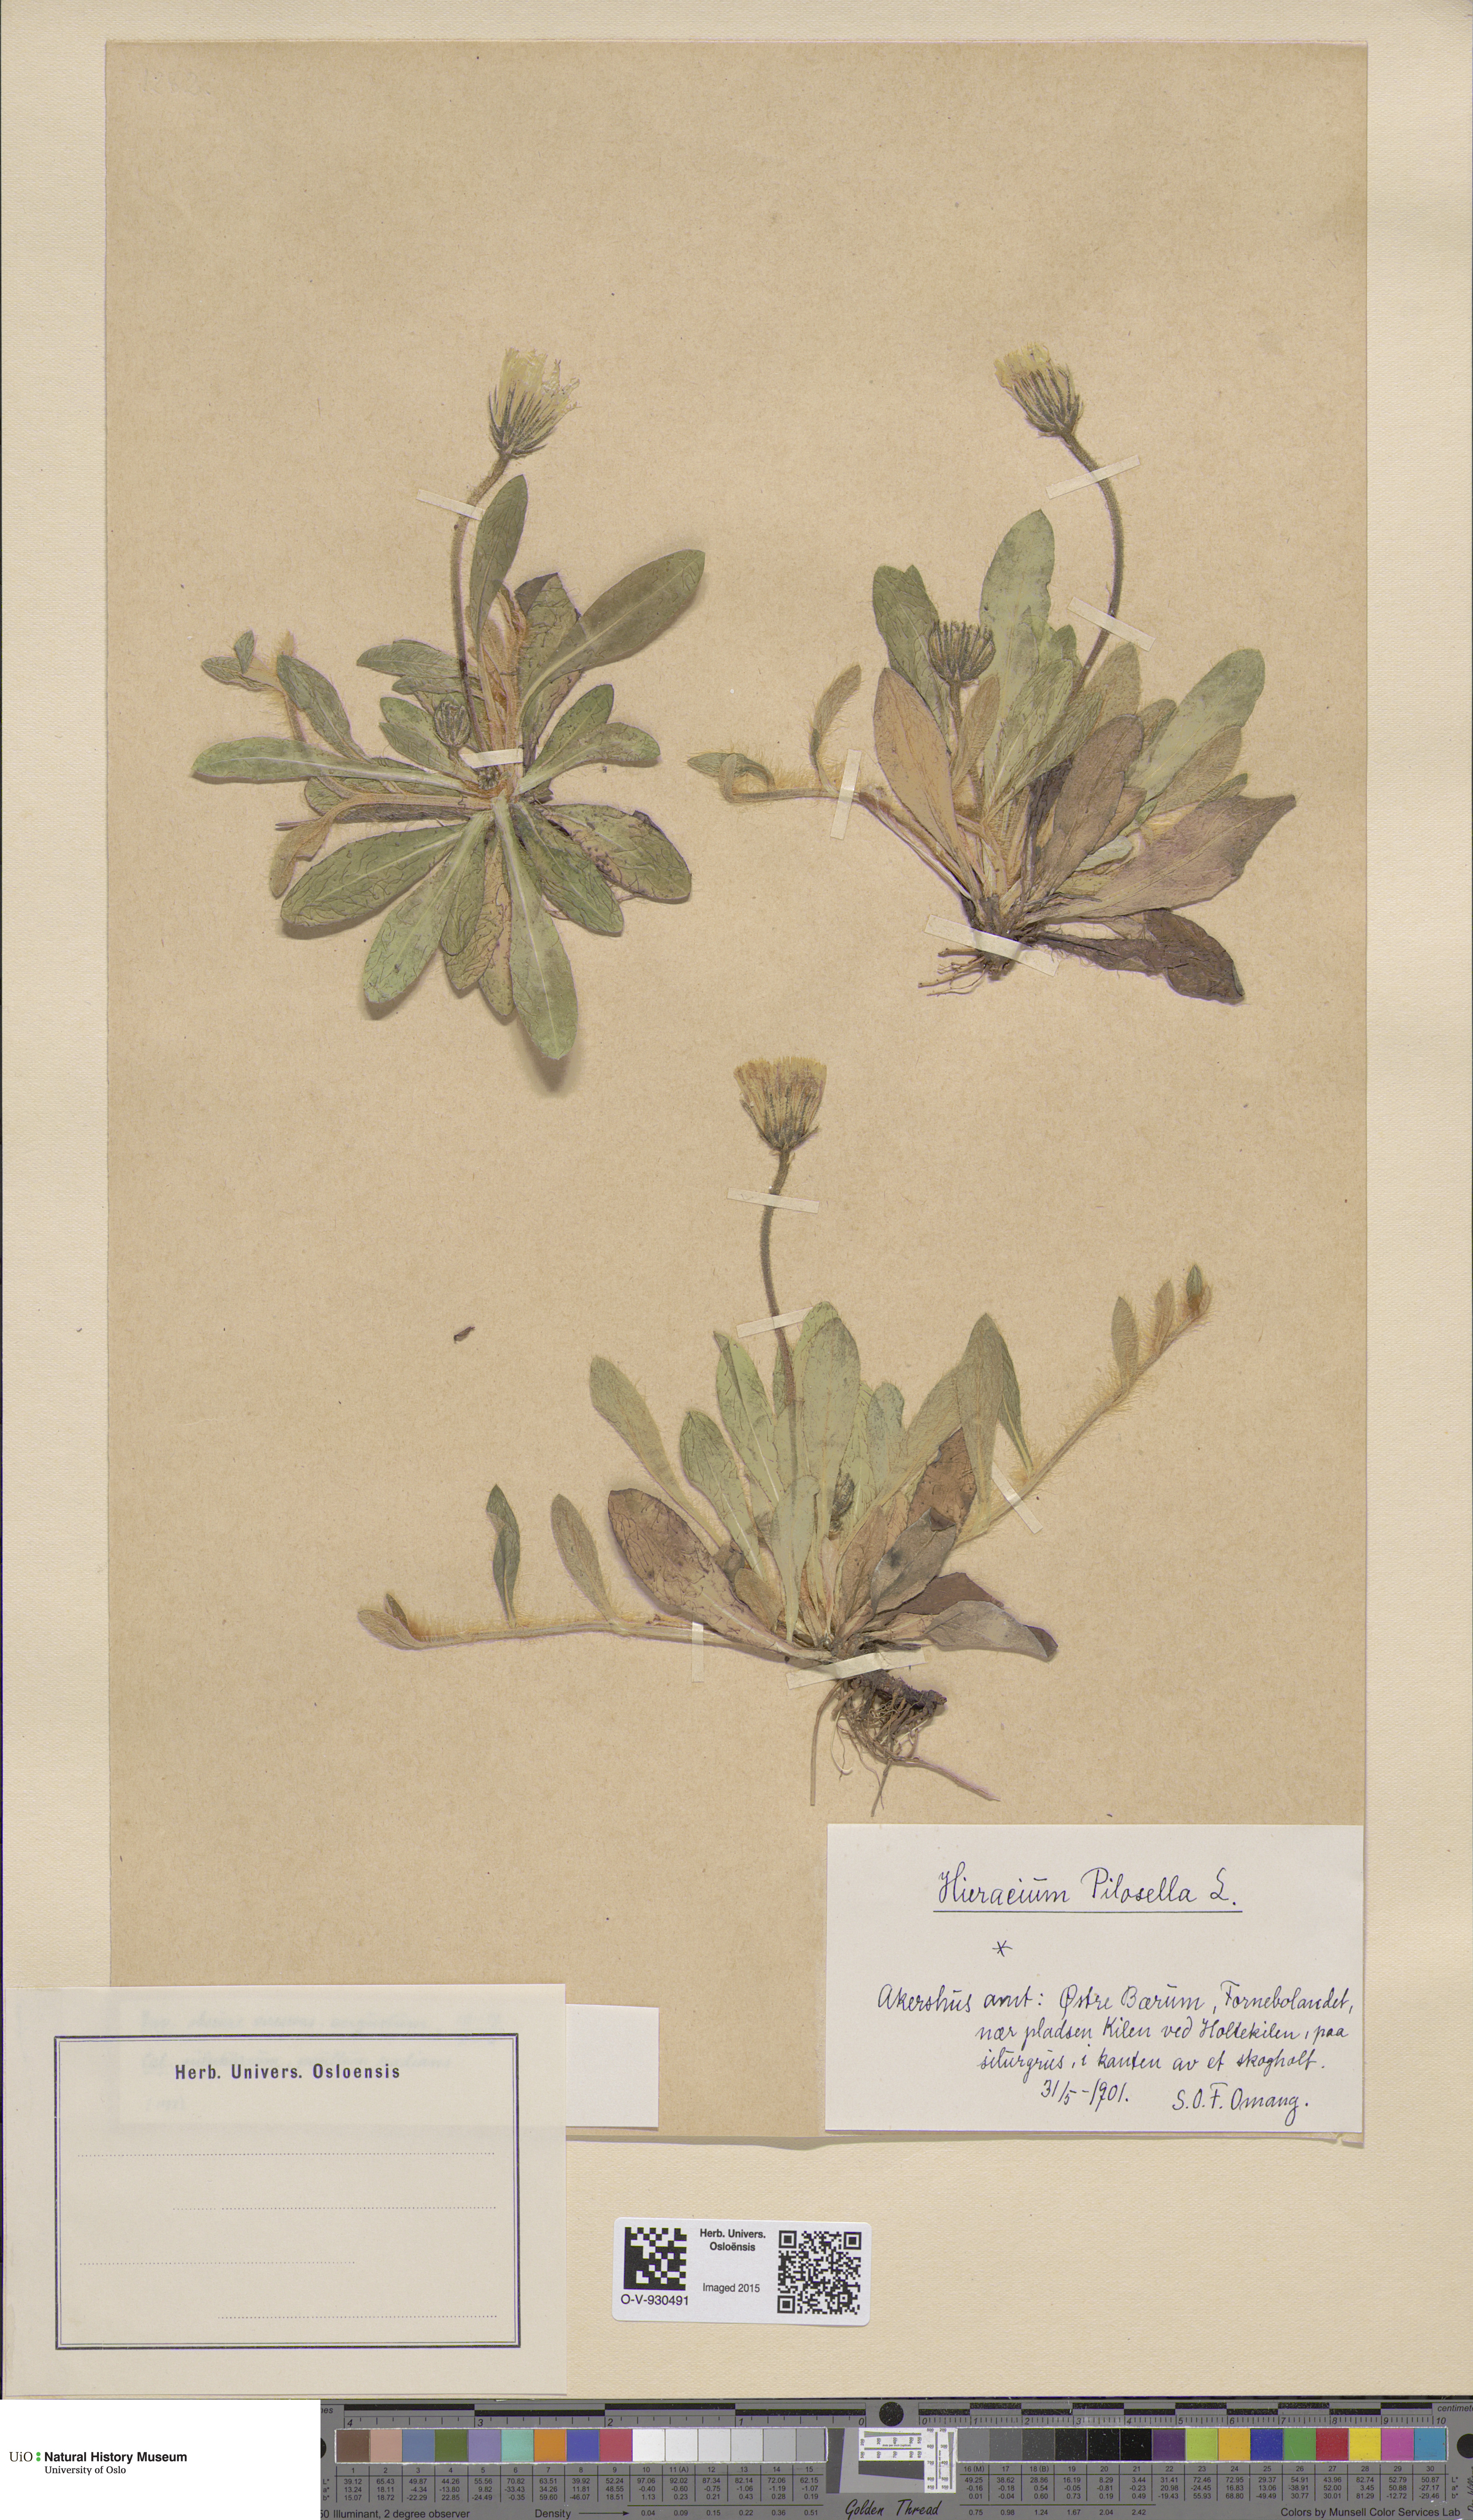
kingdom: Plantae
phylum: Tracheophyta
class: Magnoliopsida
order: Asterales
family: Asteraceae
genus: Pilosella
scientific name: Pilosella officinarum
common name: Mouse-ear hawkweed
